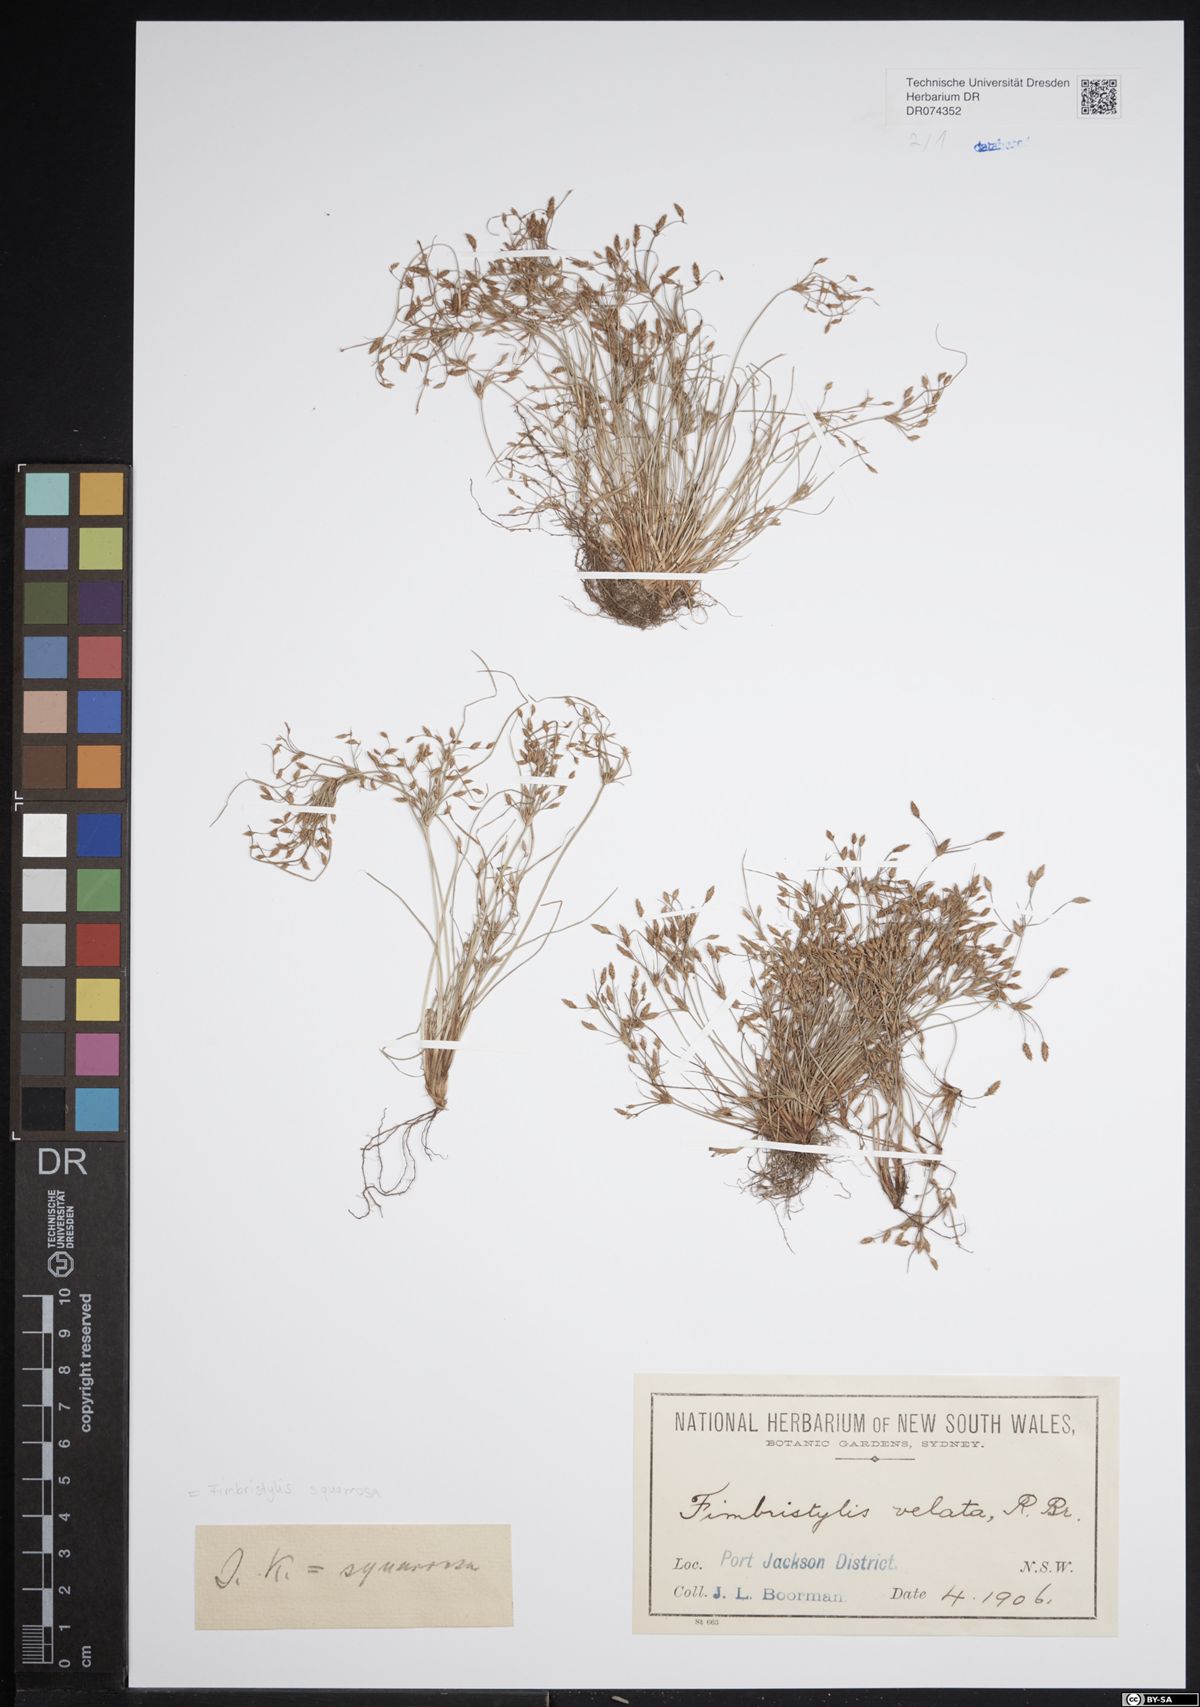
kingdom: Plantae
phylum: Tracheophyta
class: Liliopsida
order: Poales
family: Cyperaceae
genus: Fimbristylis
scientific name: Fimbristylis squarrosa
